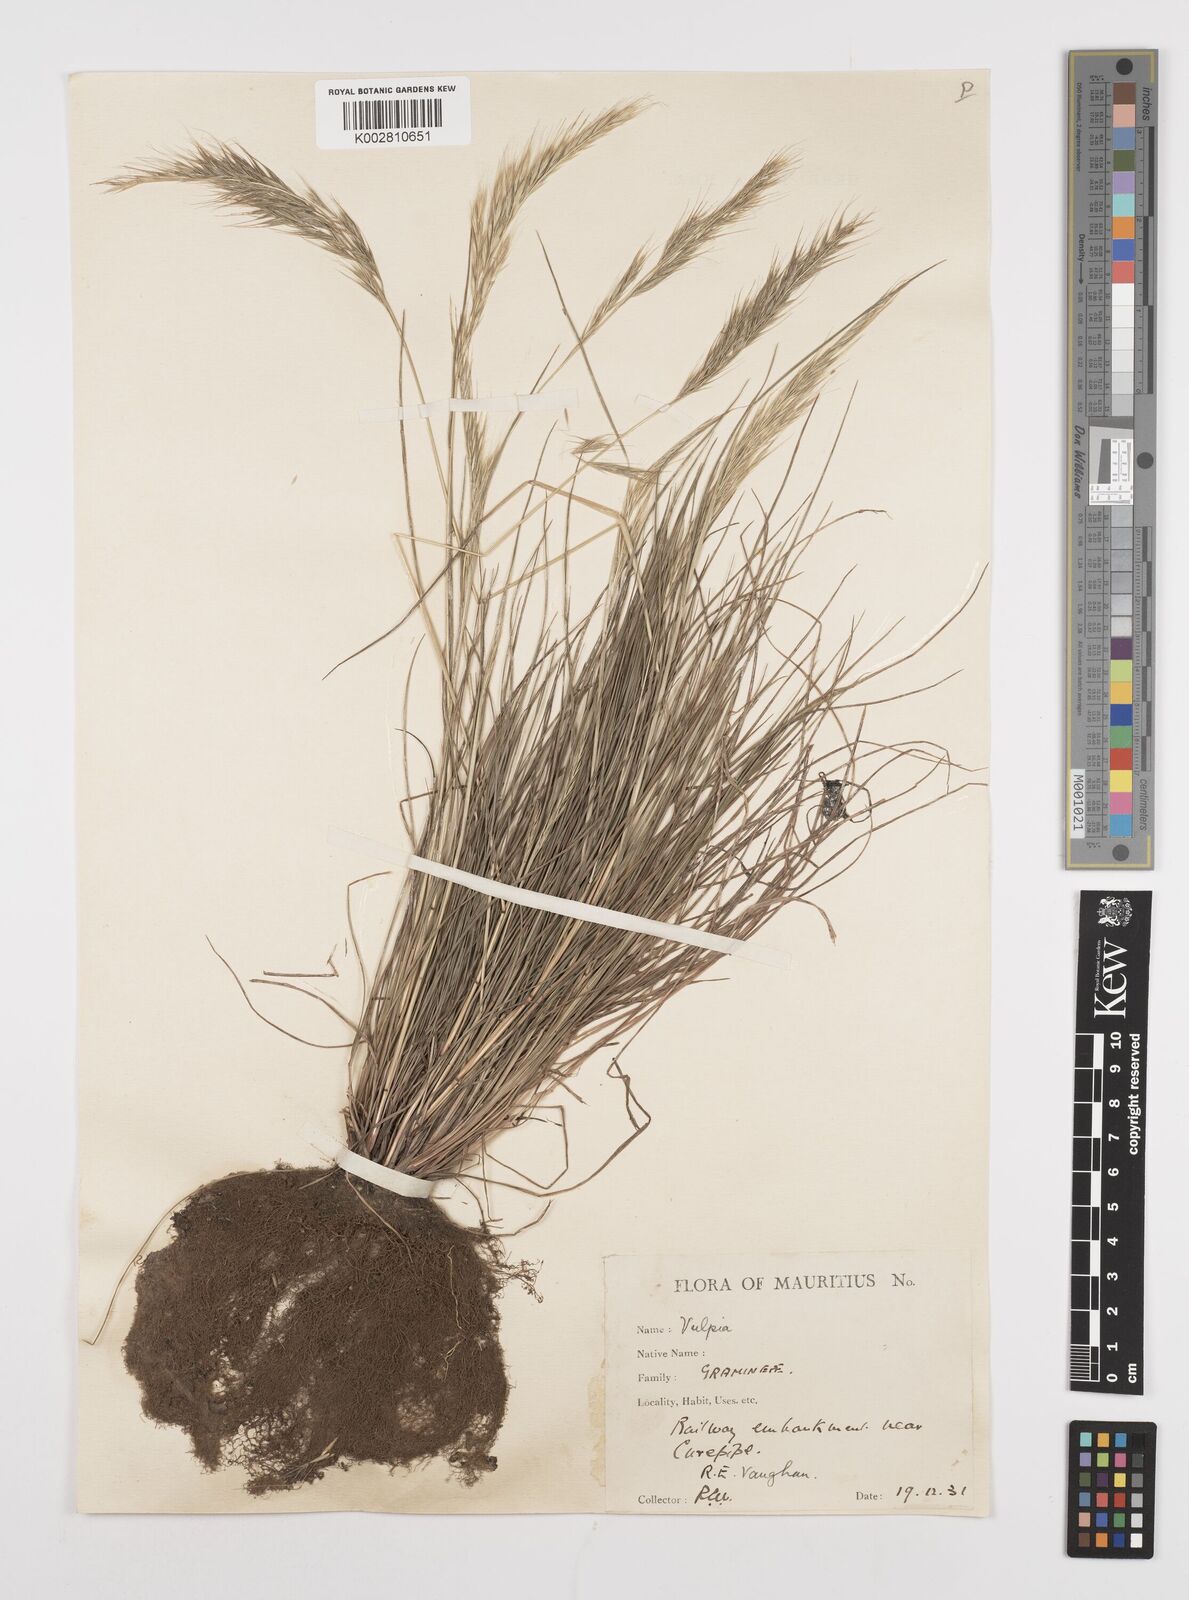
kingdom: Plantae
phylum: Tracheophyta
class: Liliopsida
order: Poales
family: Poaceae
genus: Festuca
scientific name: Festuca bromoides
